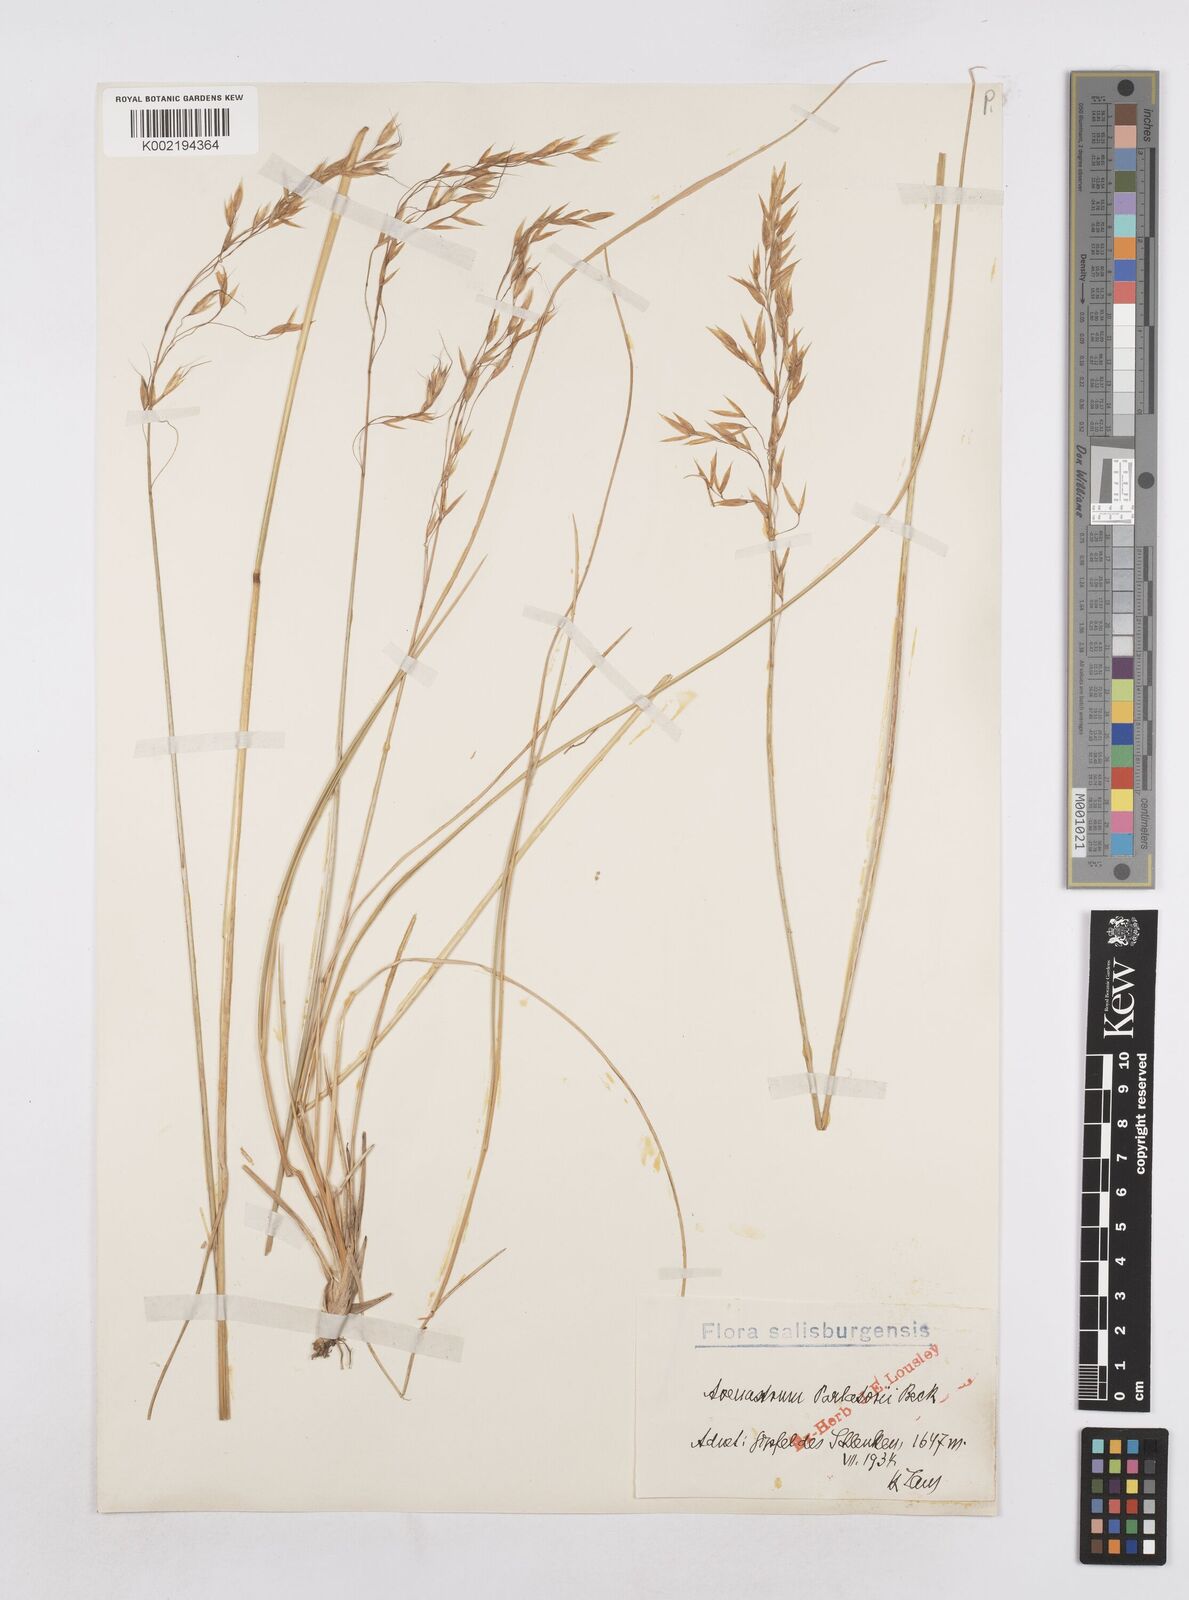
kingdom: Plantae
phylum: Tracheophyta
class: Liliopsida
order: Poales
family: Poaceae
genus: Helictotrichon
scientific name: Helictotrichon parlatorei
